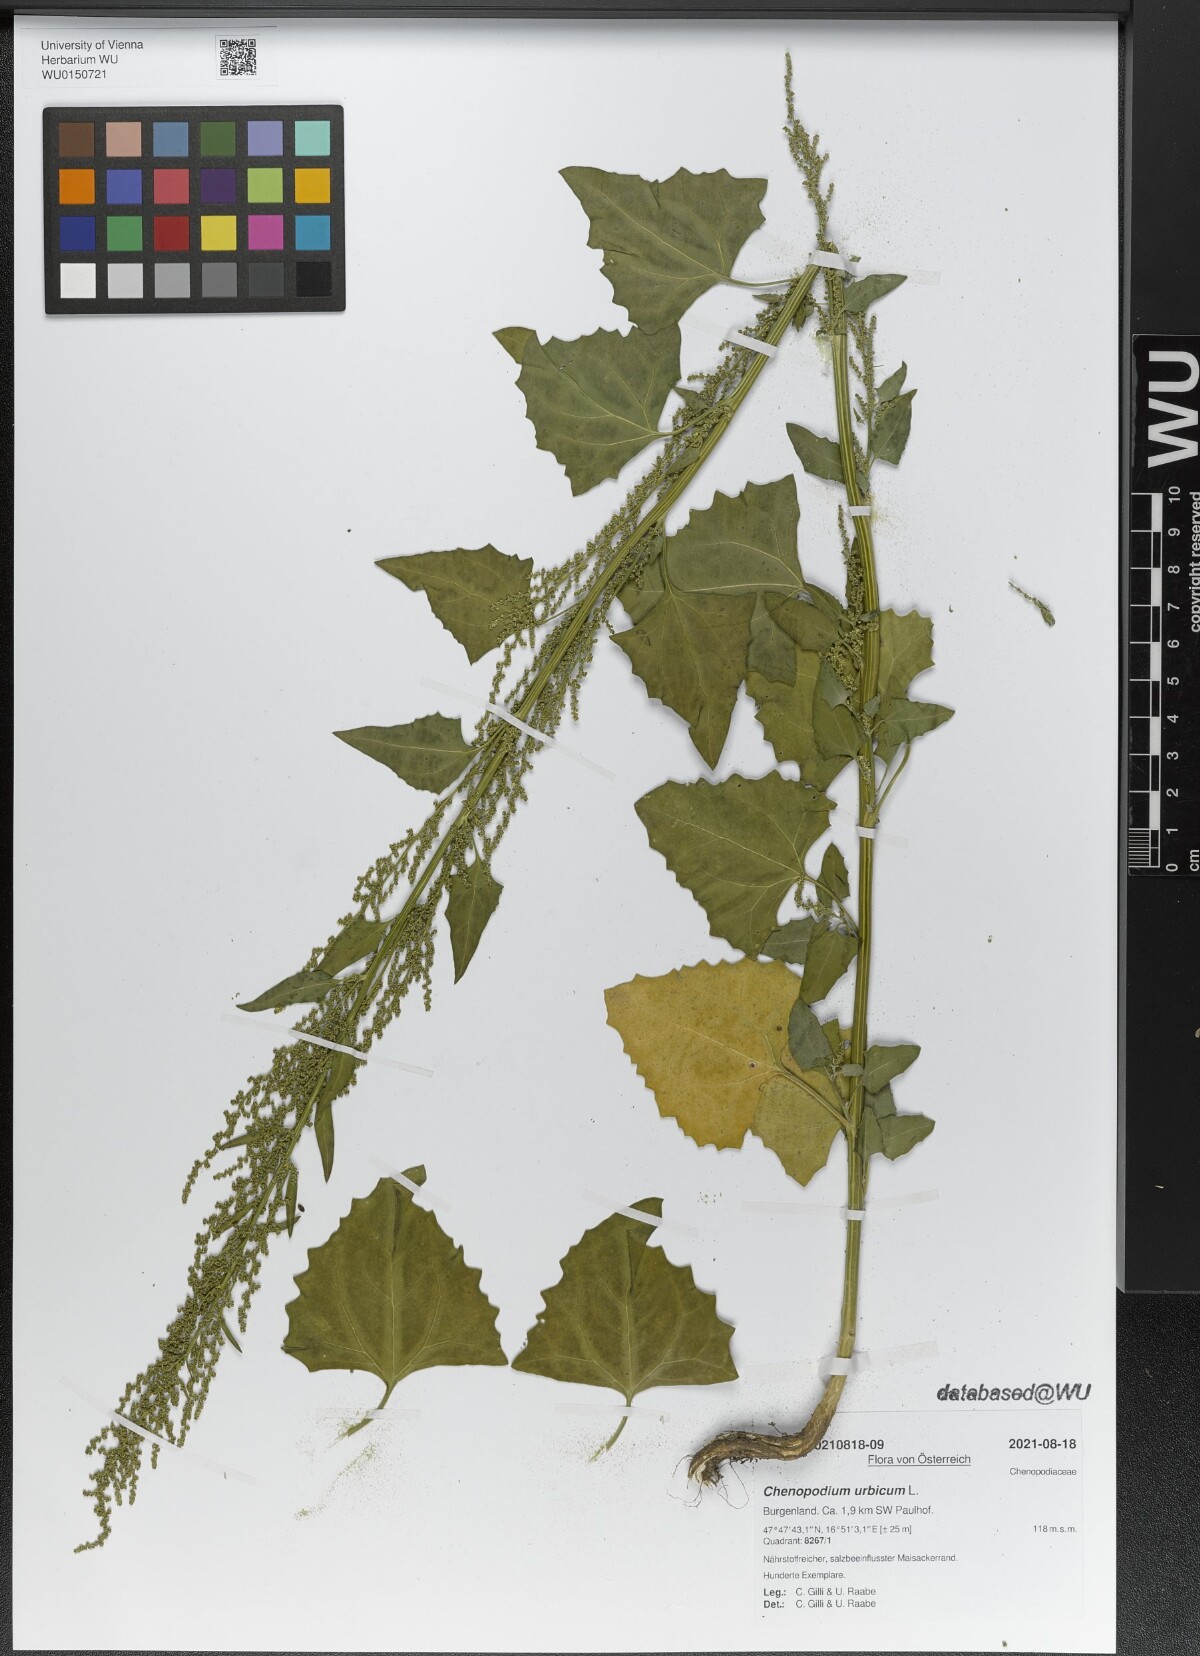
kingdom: Plantae
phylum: Tracheophyta
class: Magnoliopsida
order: Caryophyllales
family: Amaranthaceae
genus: Oxybasis
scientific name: Oxybasis urbica
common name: City goosefoot
